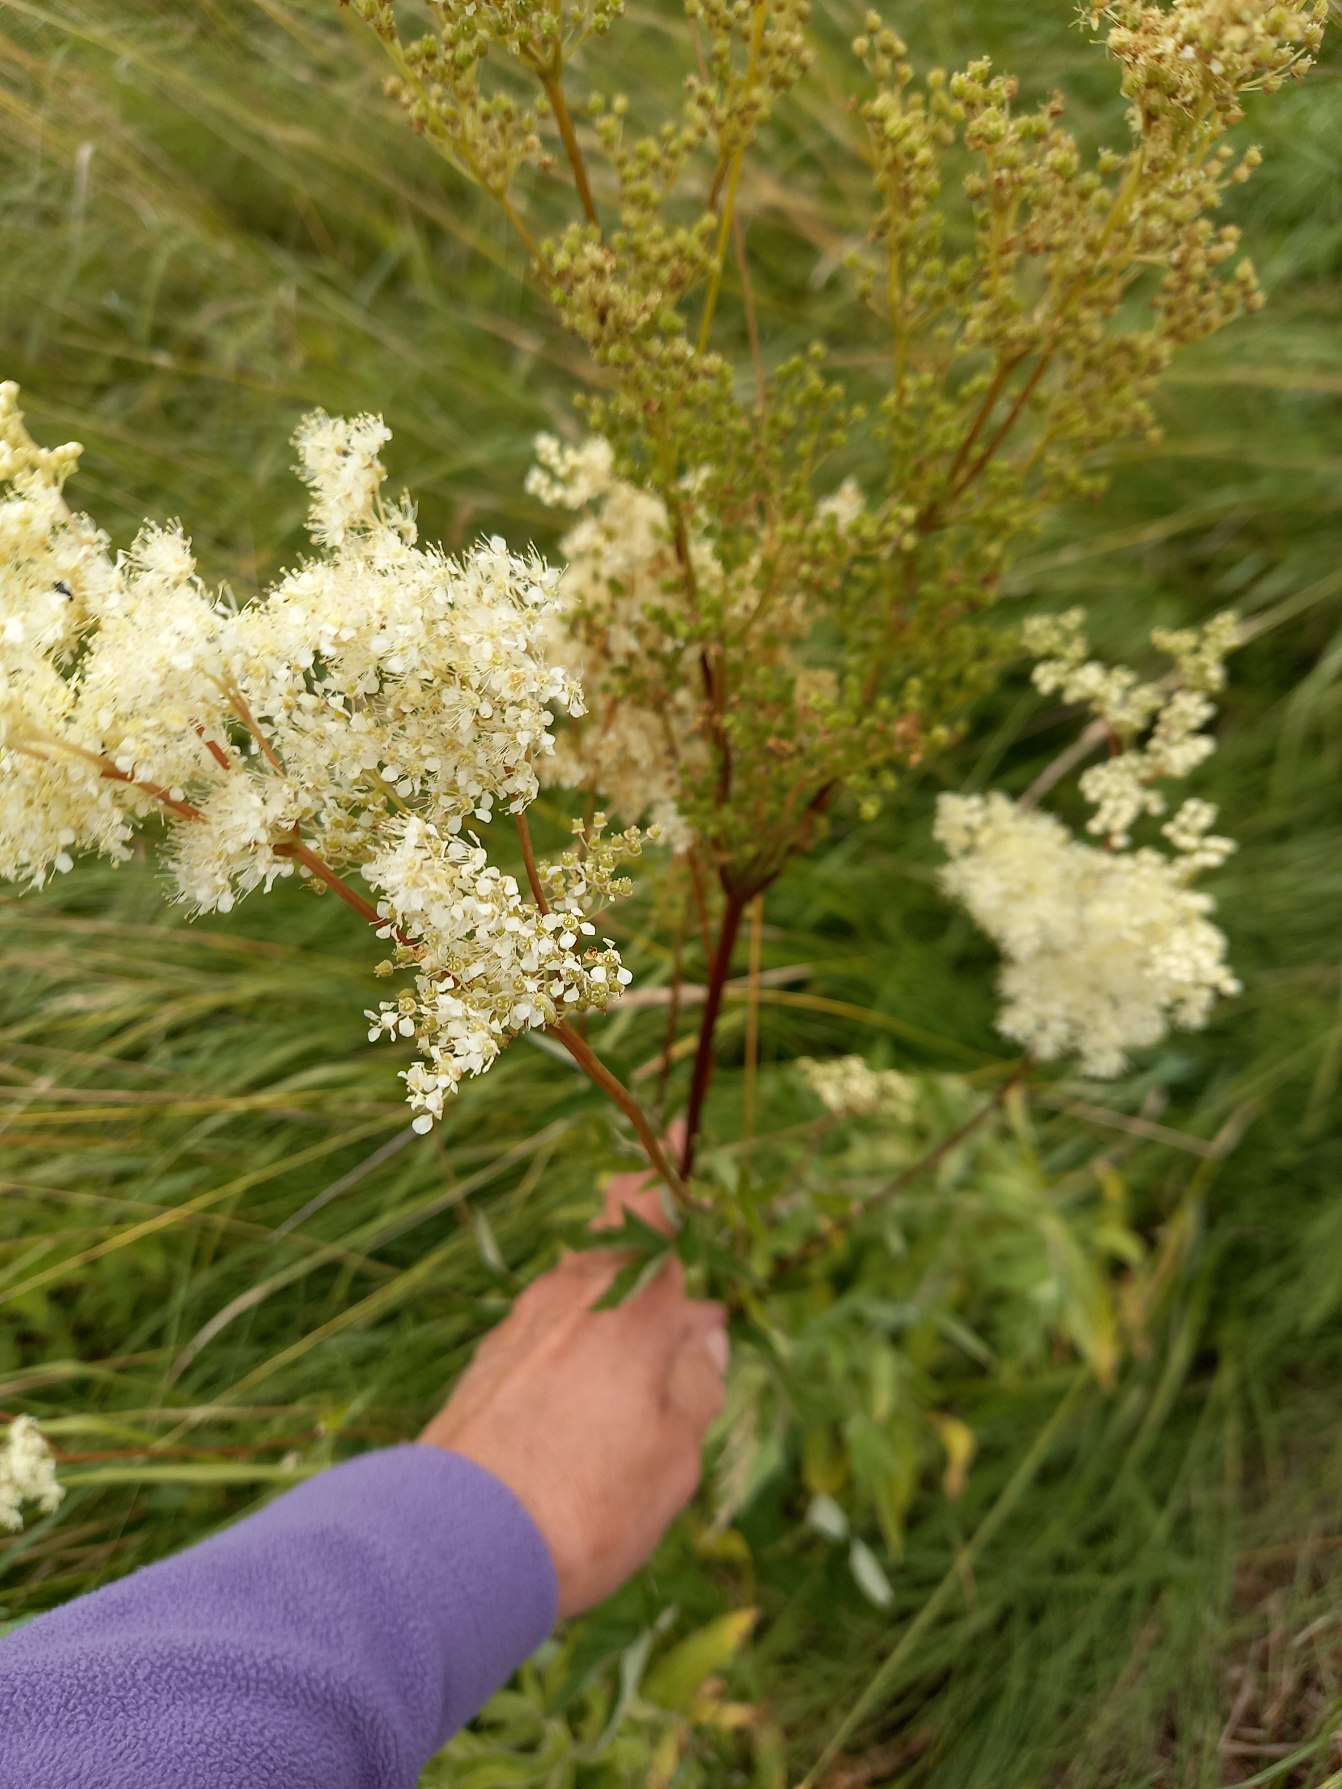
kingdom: Plantae
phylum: Tracheophyta
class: Magnoliopsida
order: Rosales
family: Rosaceae
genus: Filipendula
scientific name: Filipendula ulmaria
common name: Almindelig mjødurt
